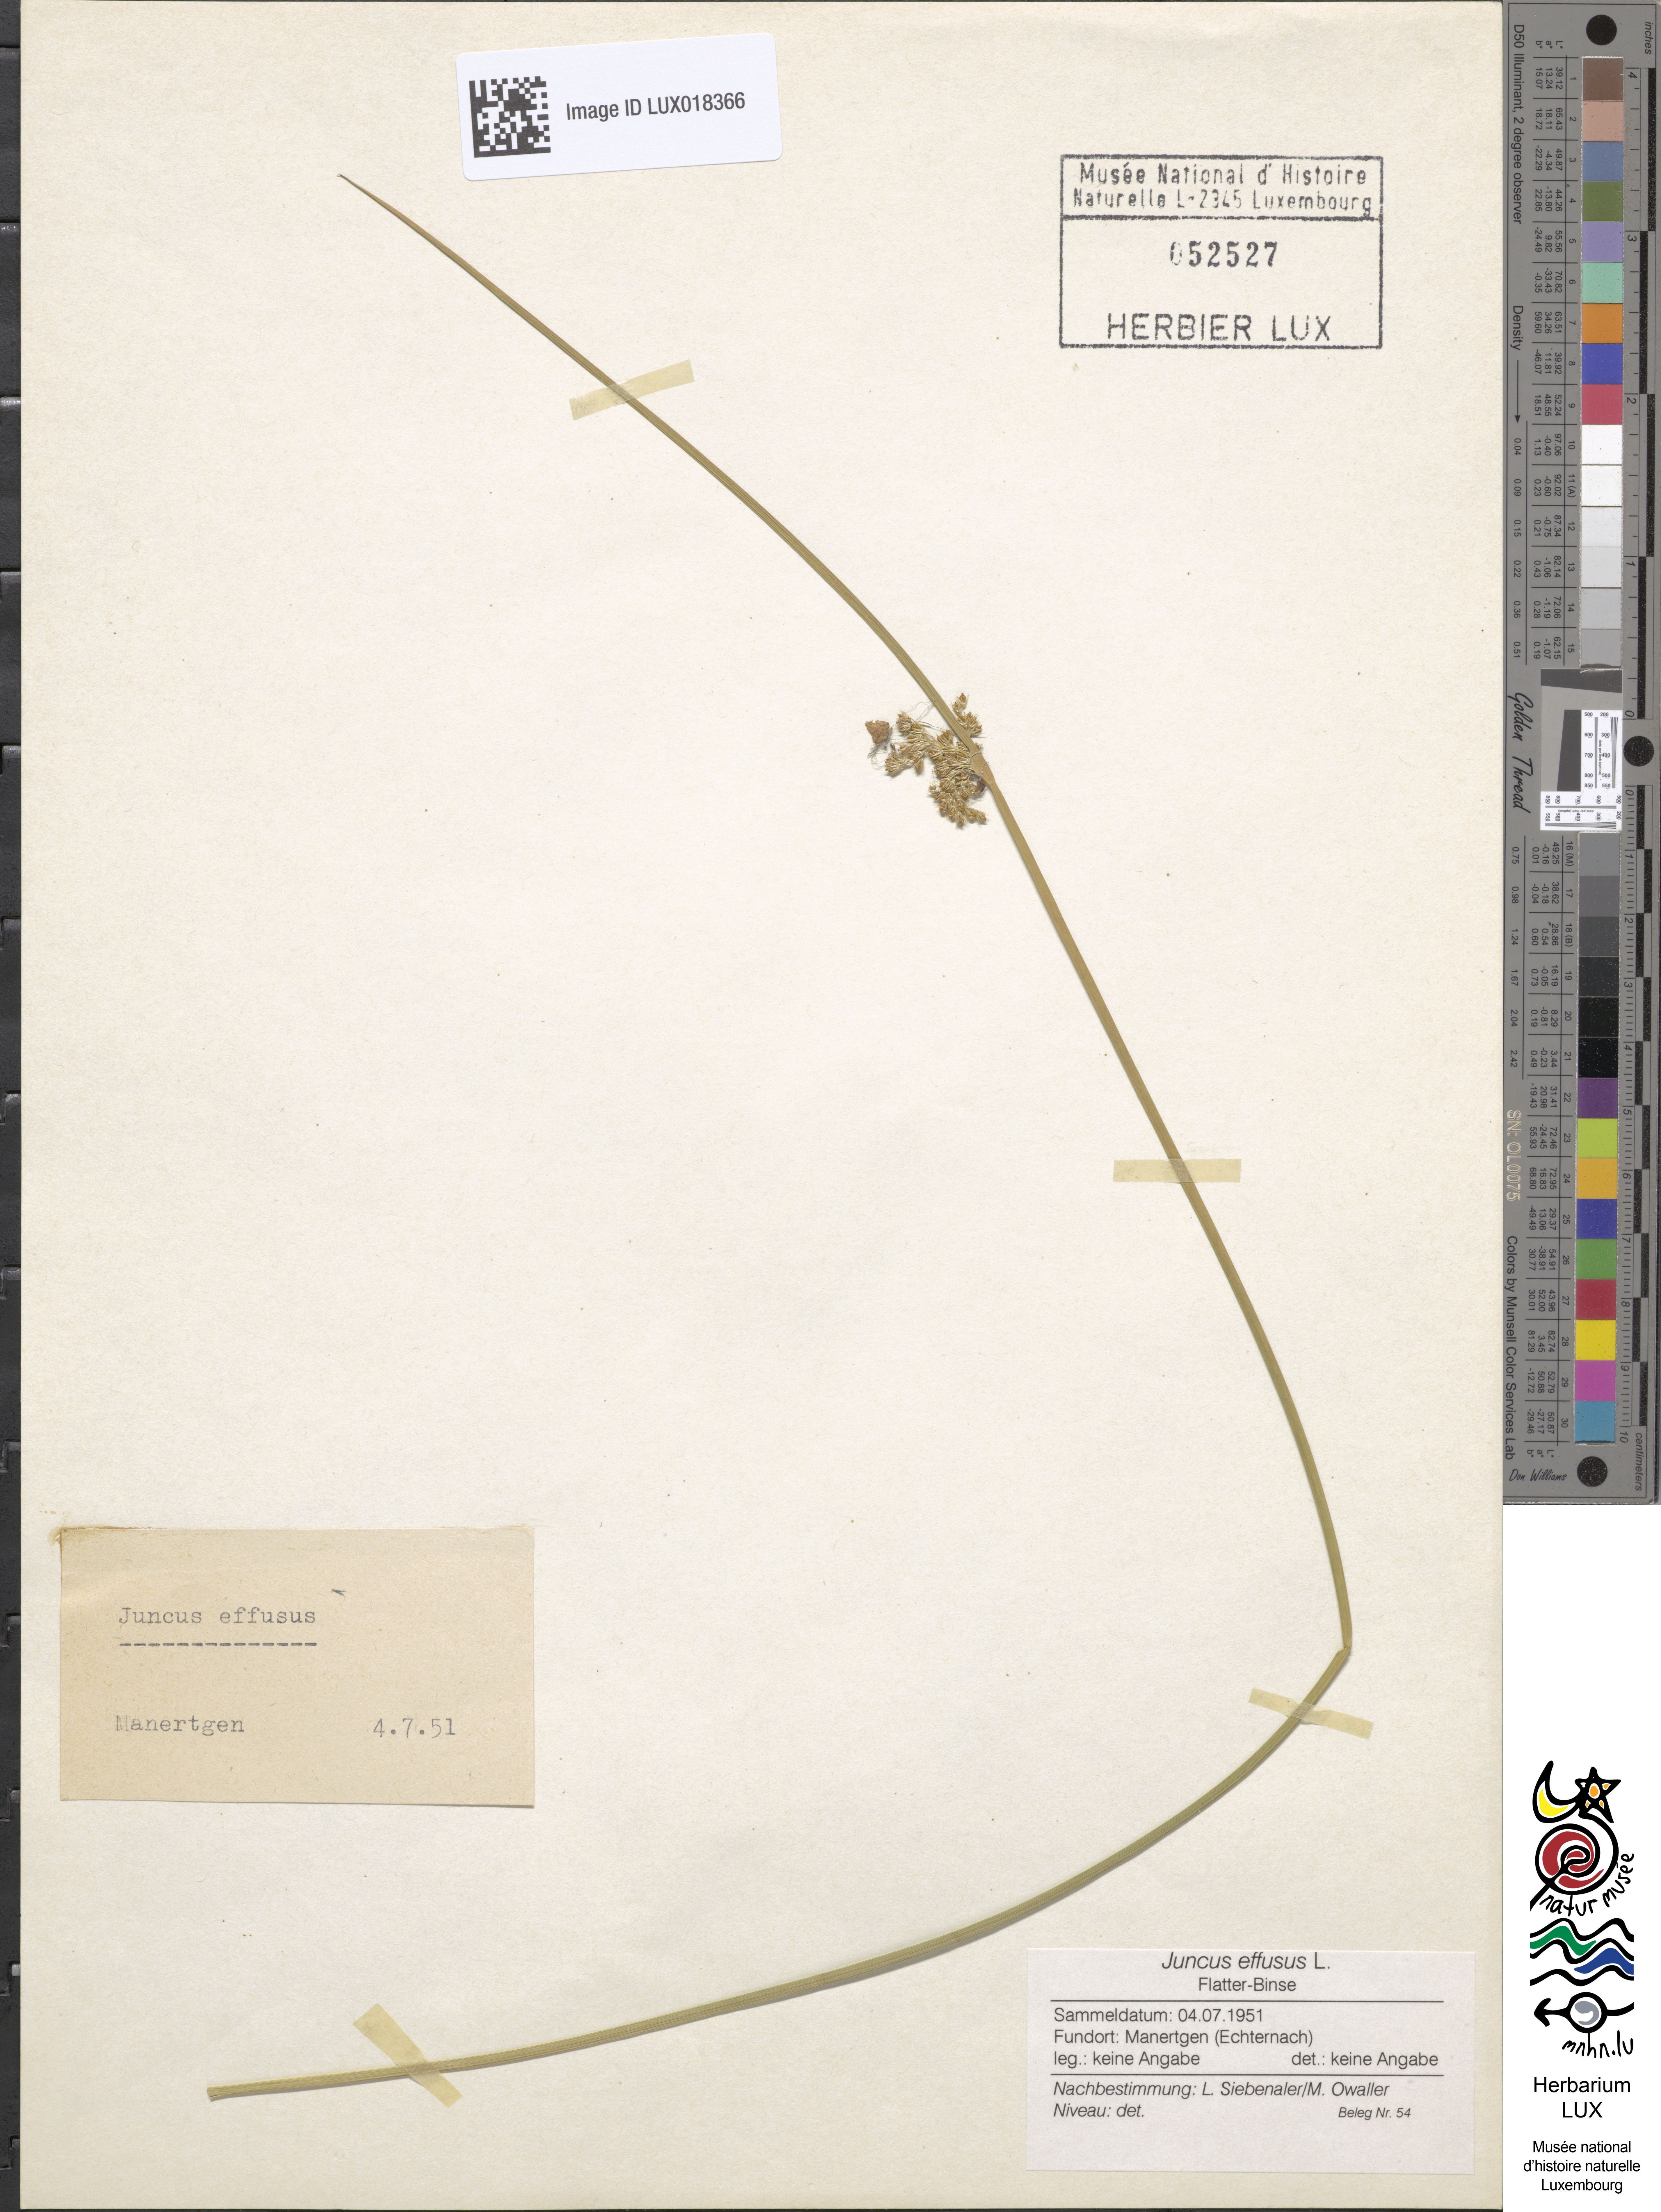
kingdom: Plantae
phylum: Tracheophyta
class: Liliopsida
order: Poales
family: Juncaceae
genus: Juncus
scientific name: Juncus effusus
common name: Soft rush
